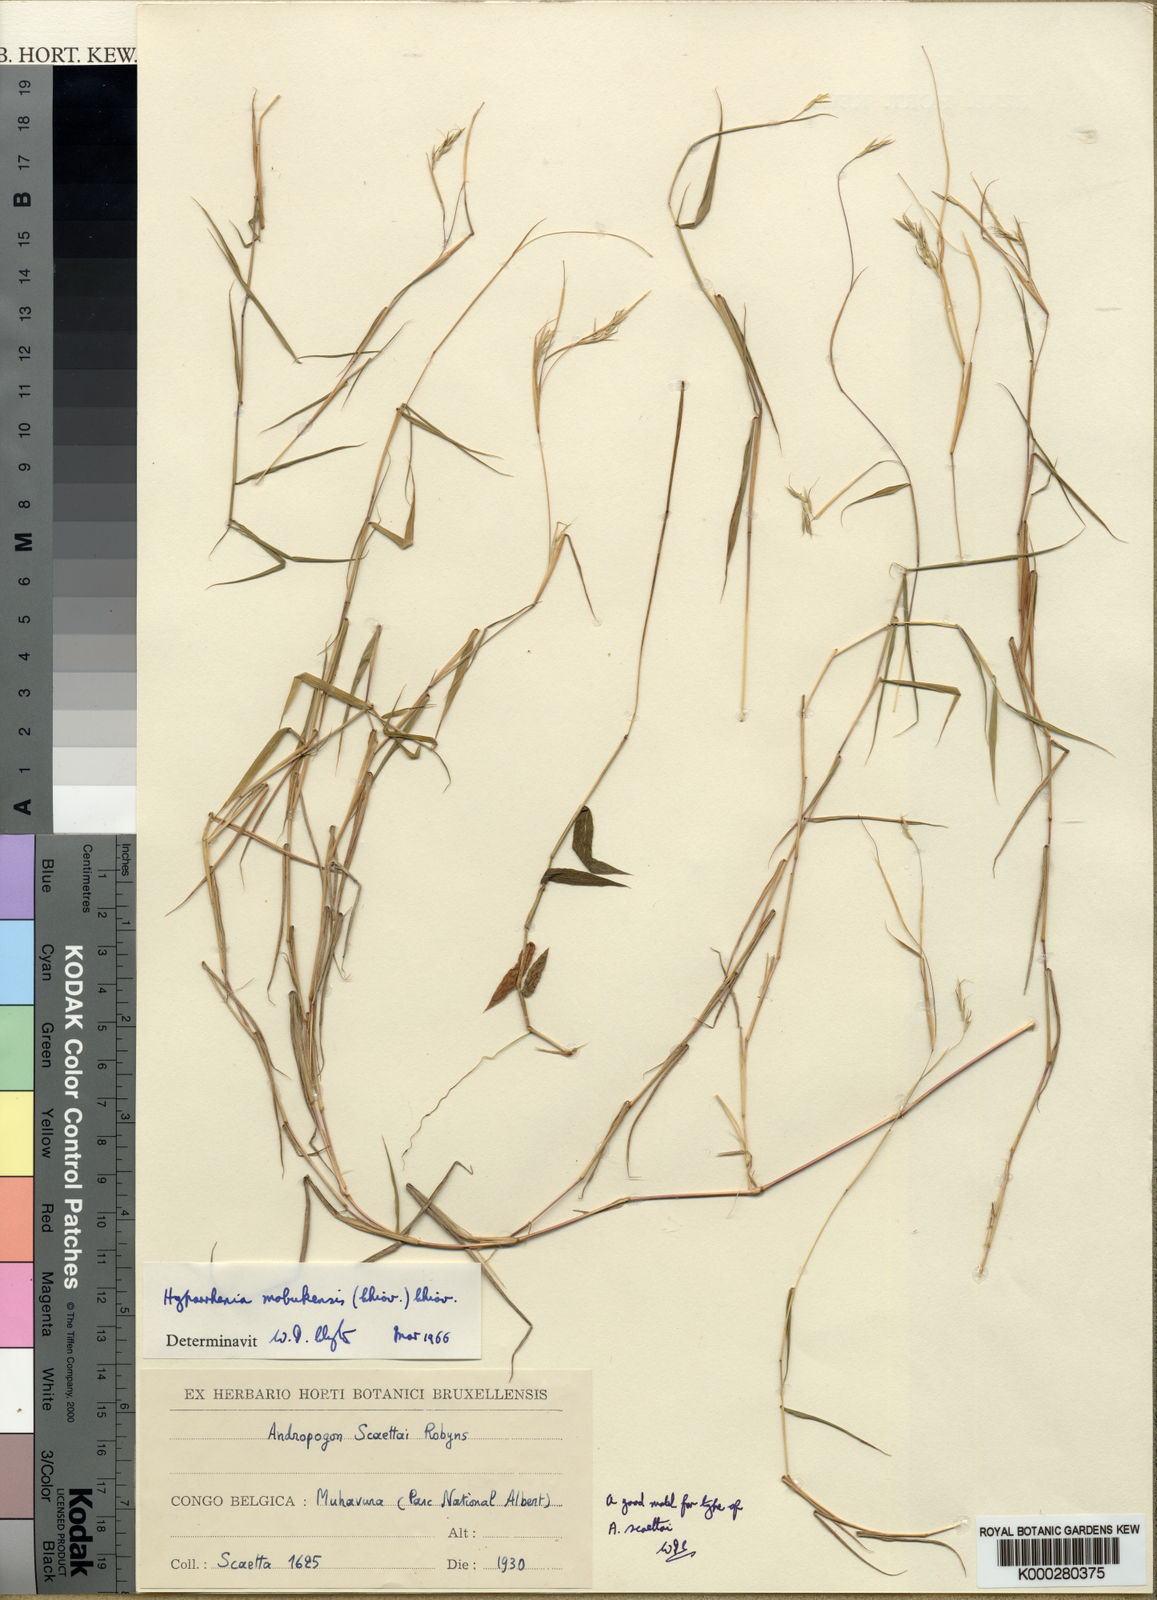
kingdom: Plantae
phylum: Tracheophyta
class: Liliopsida
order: Poales
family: Poaceae
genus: Hyparrhenia
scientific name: Hyparrhenia mobukensis
